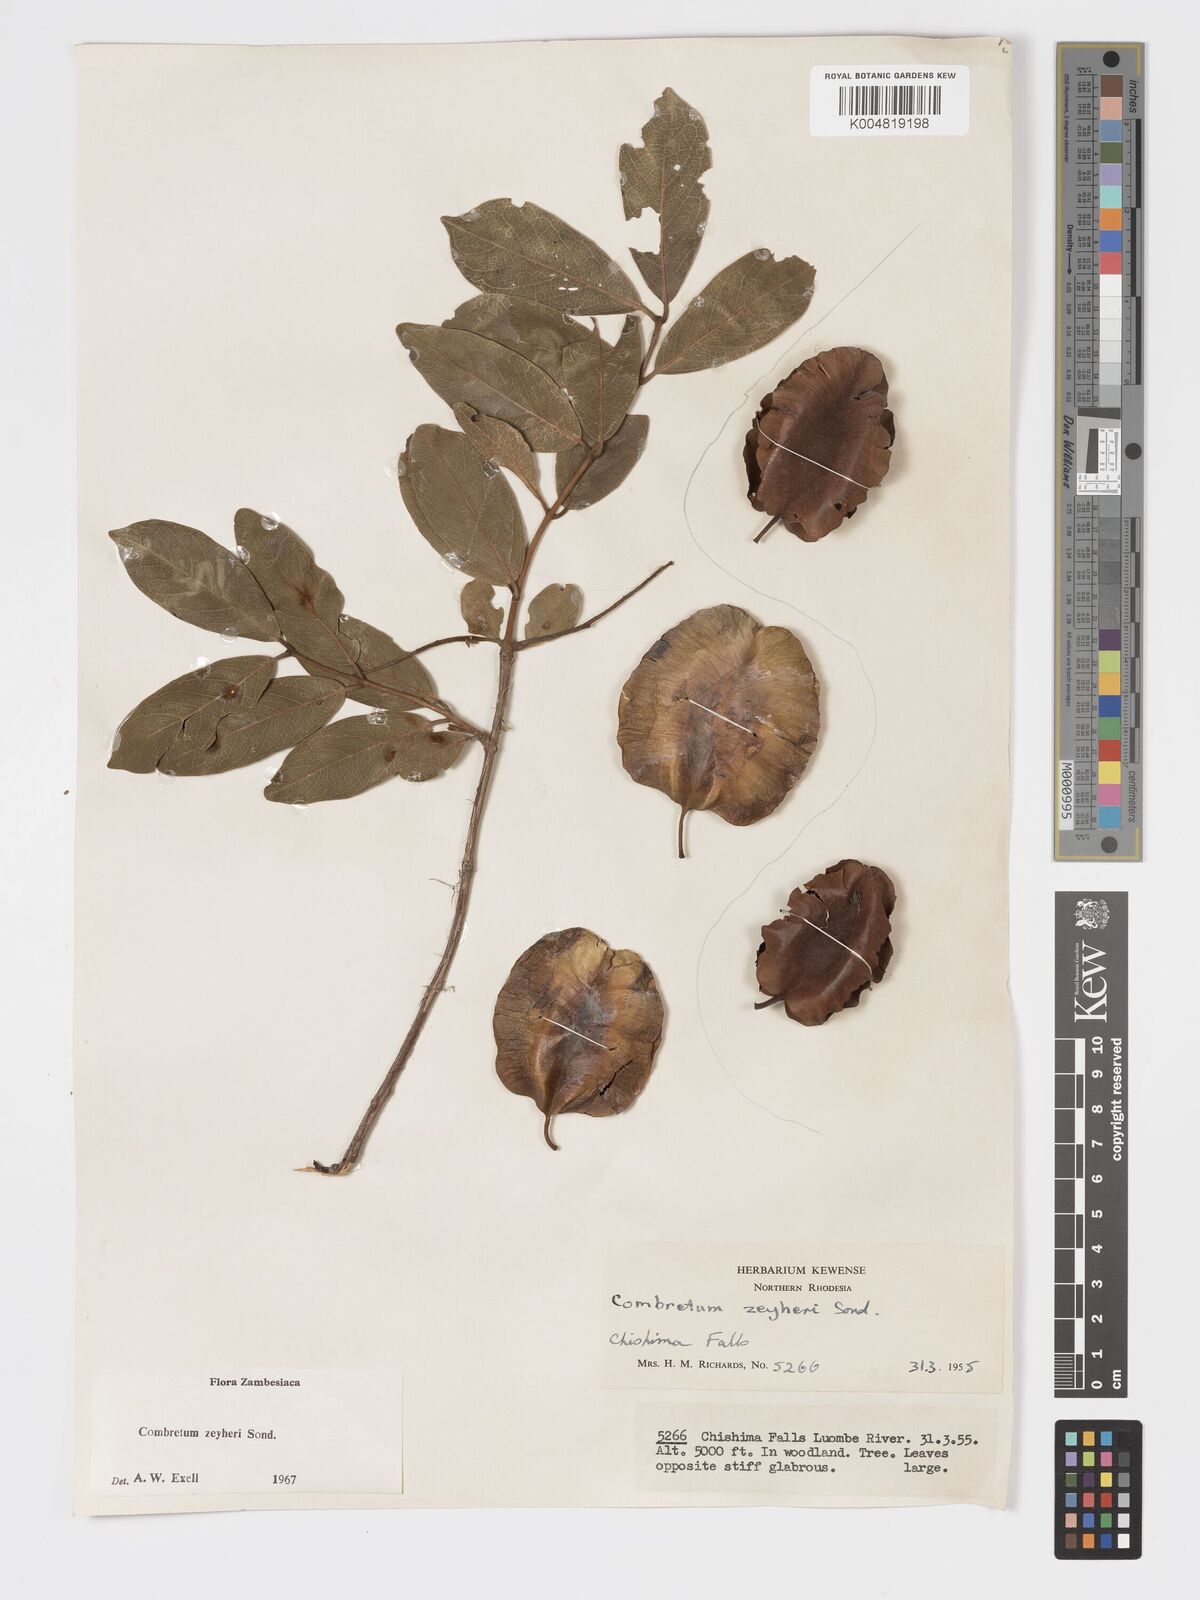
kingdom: Plantae
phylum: Tracheophyta
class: Magnoliopsida
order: Myrtales
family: Combretaceae
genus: Combretum
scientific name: Combretum zeyheri
